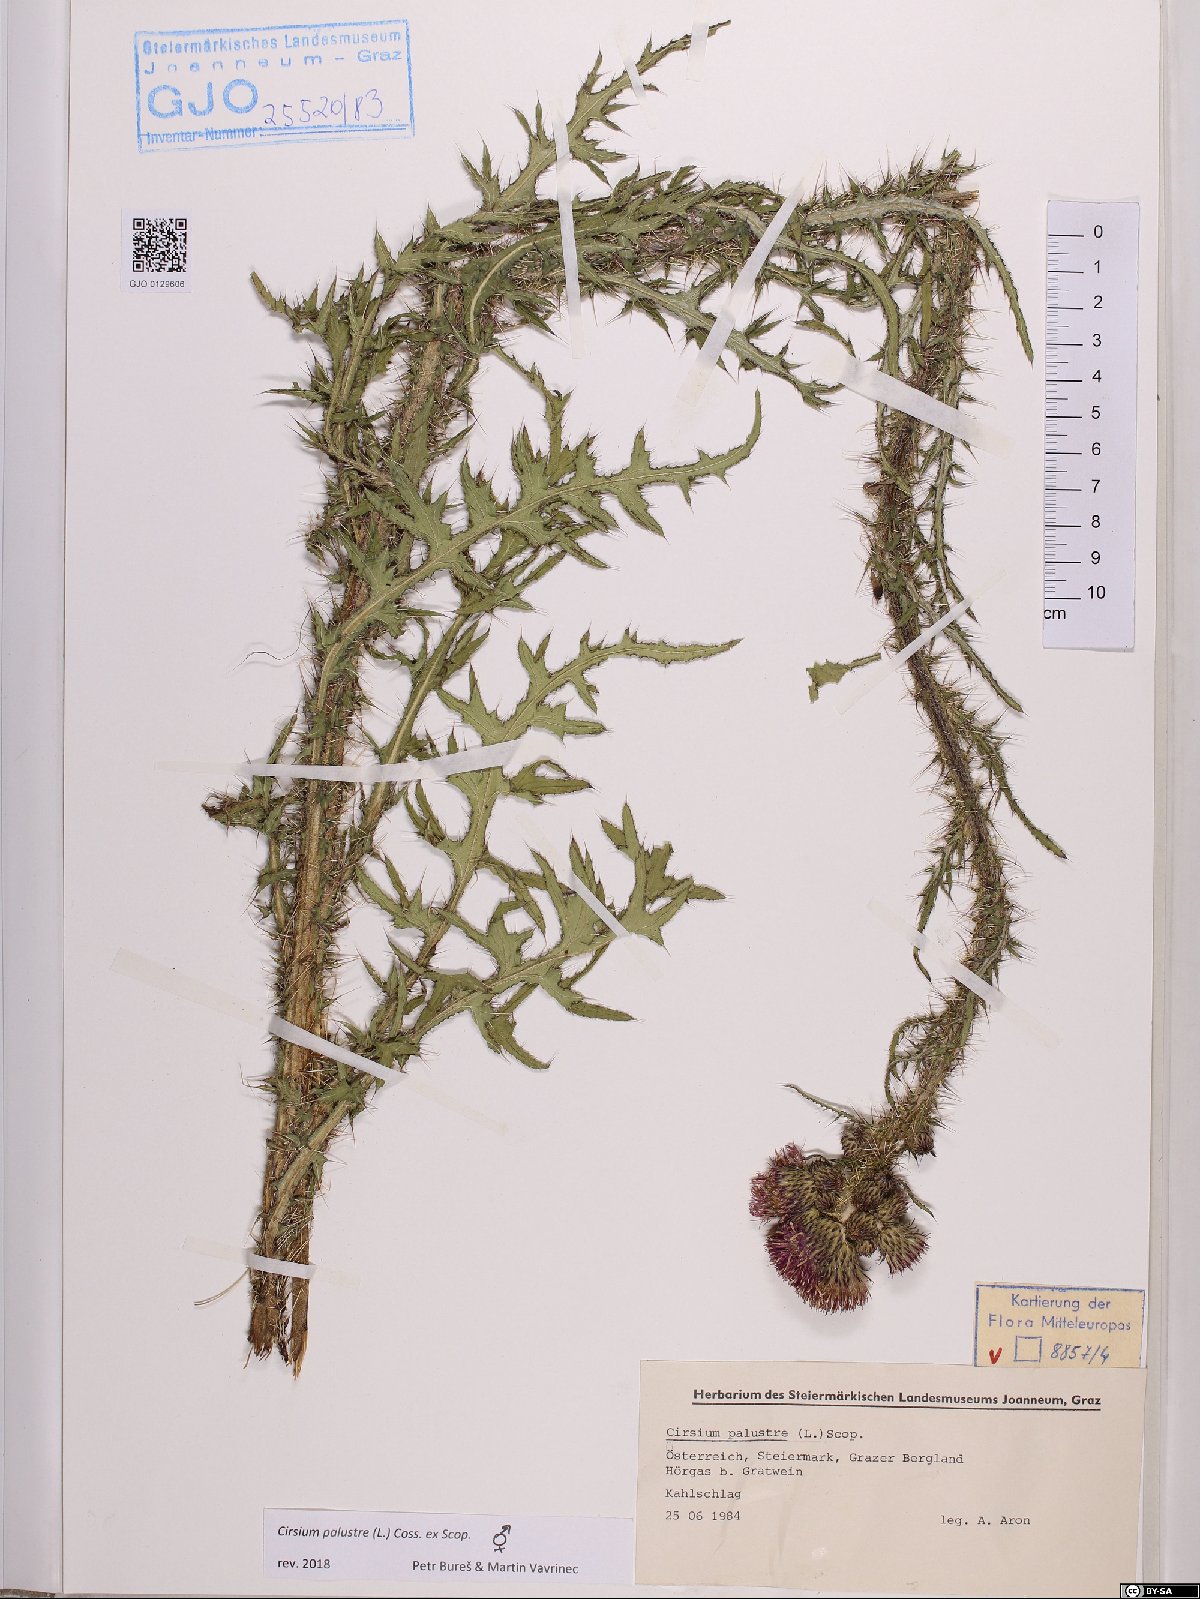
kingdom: Plantae
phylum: Tracheophyta
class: Magnoliopsida
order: Asterales
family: Asteraceae
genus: Cirsium
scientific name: Cirsium palustre
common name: Marsh thistle
